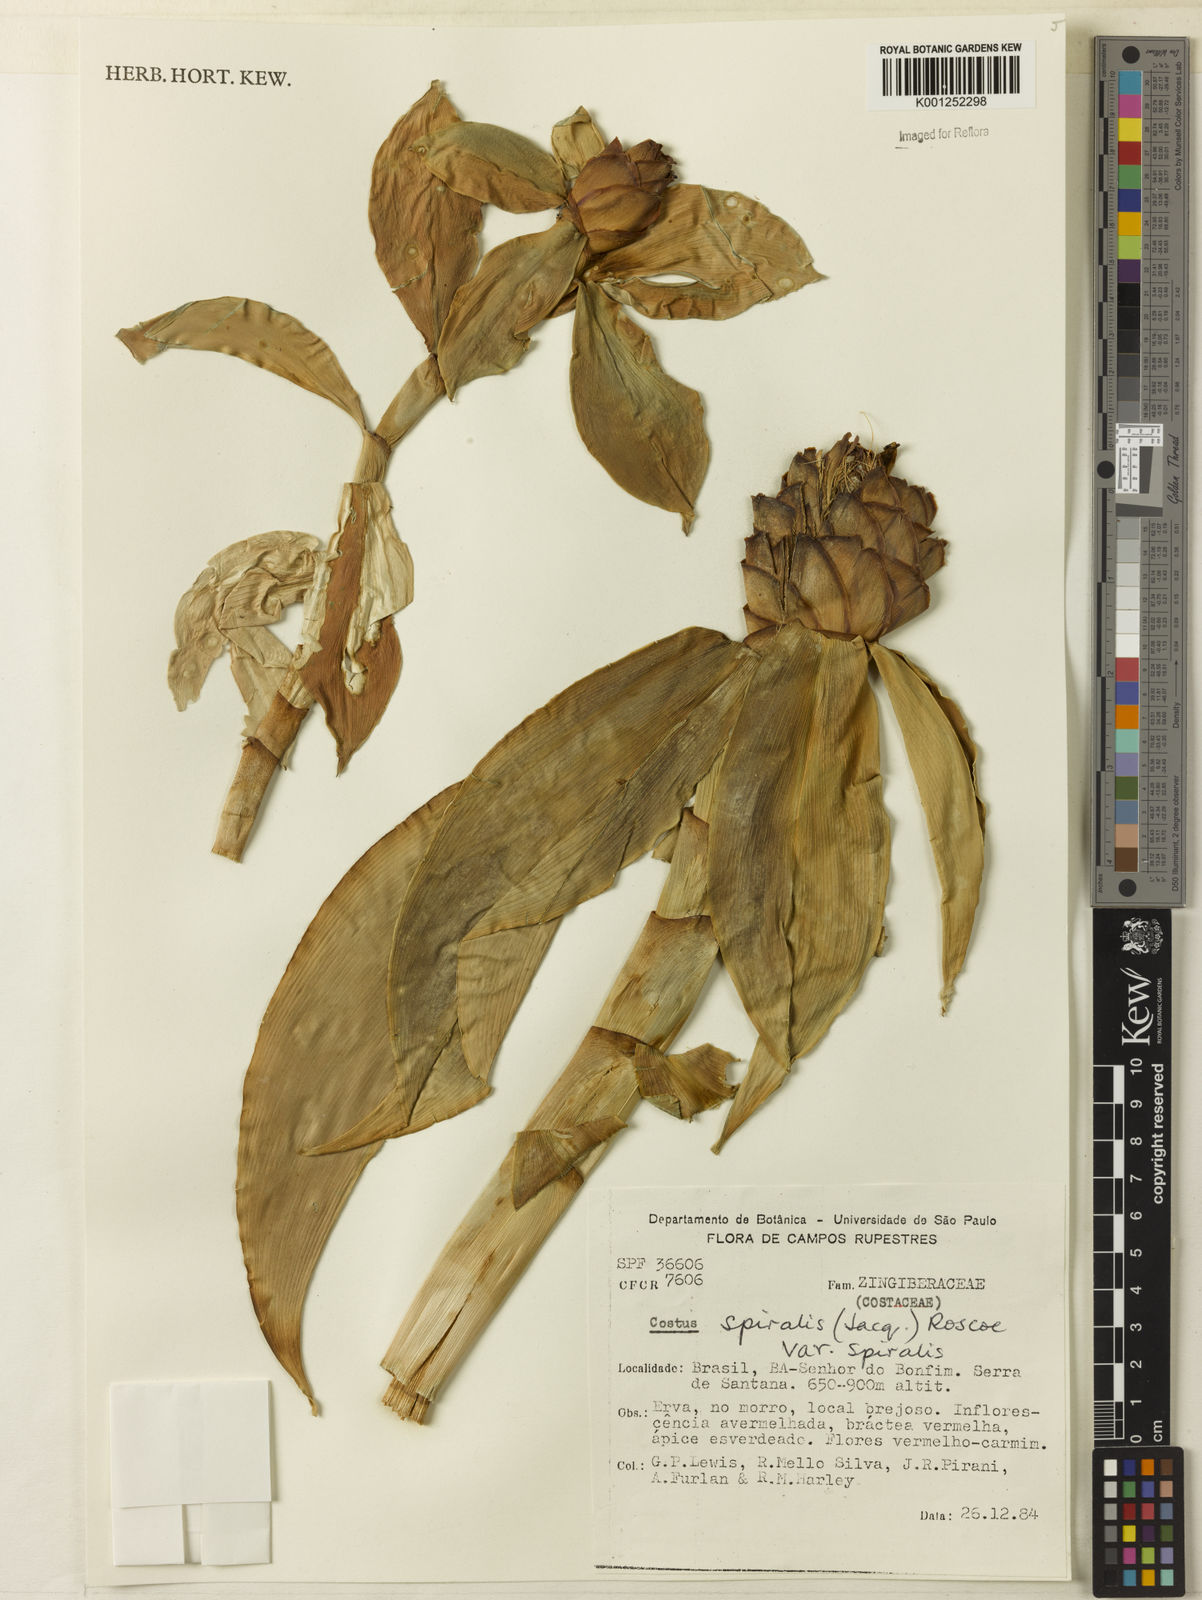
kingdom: Plantae
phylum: Tracheophyta
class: Liliopsida
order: Zingiberales
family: Costaceae
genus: Costus
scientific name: Costus spiralis
